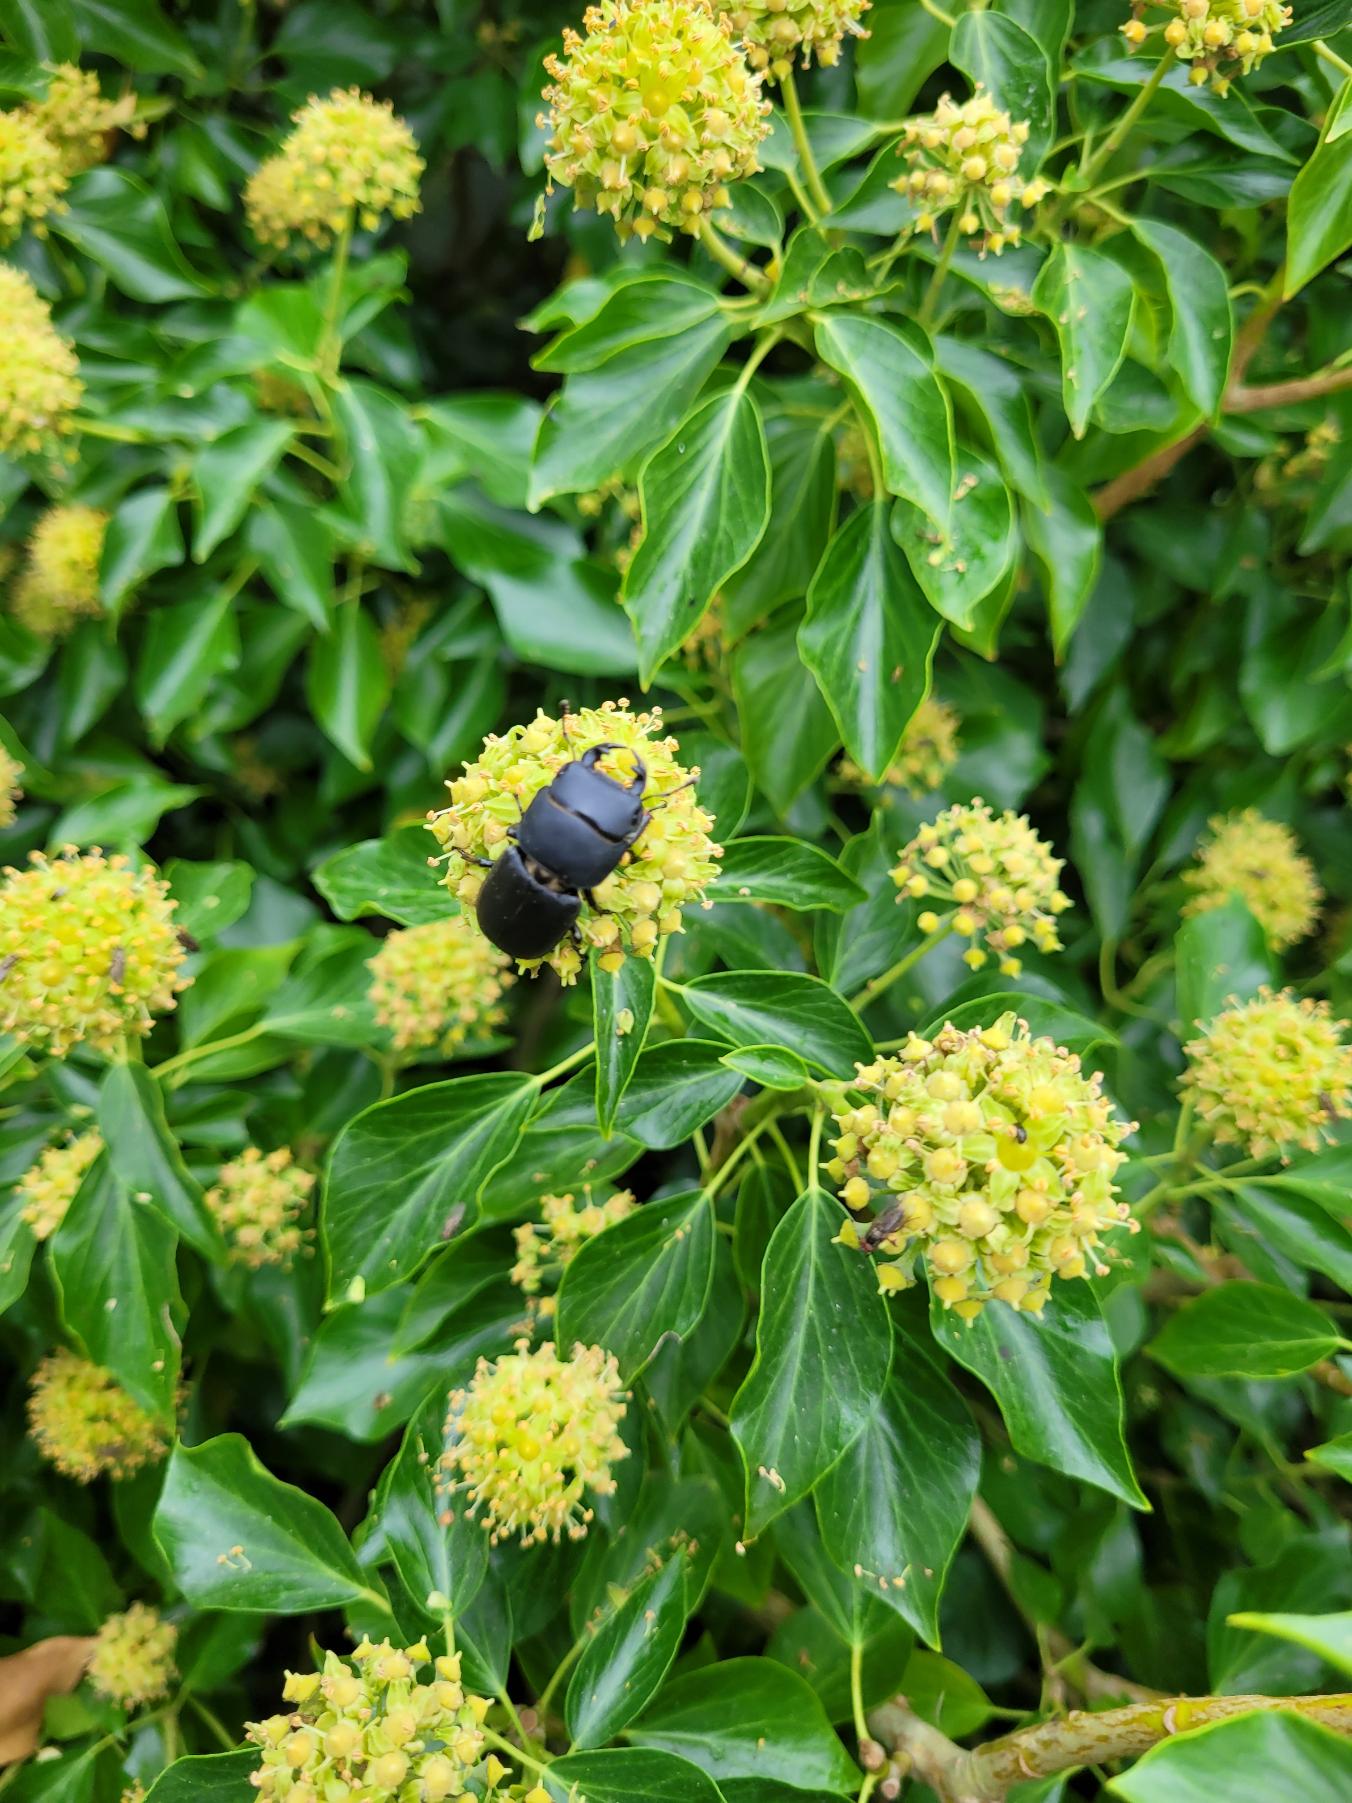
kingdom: Animalia
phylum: Arthropoda
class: Insecta
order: Coleoptera
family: Lucanidae
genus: Dorcus
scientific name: Dorcus parallelipipedus
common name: Bøghjort
